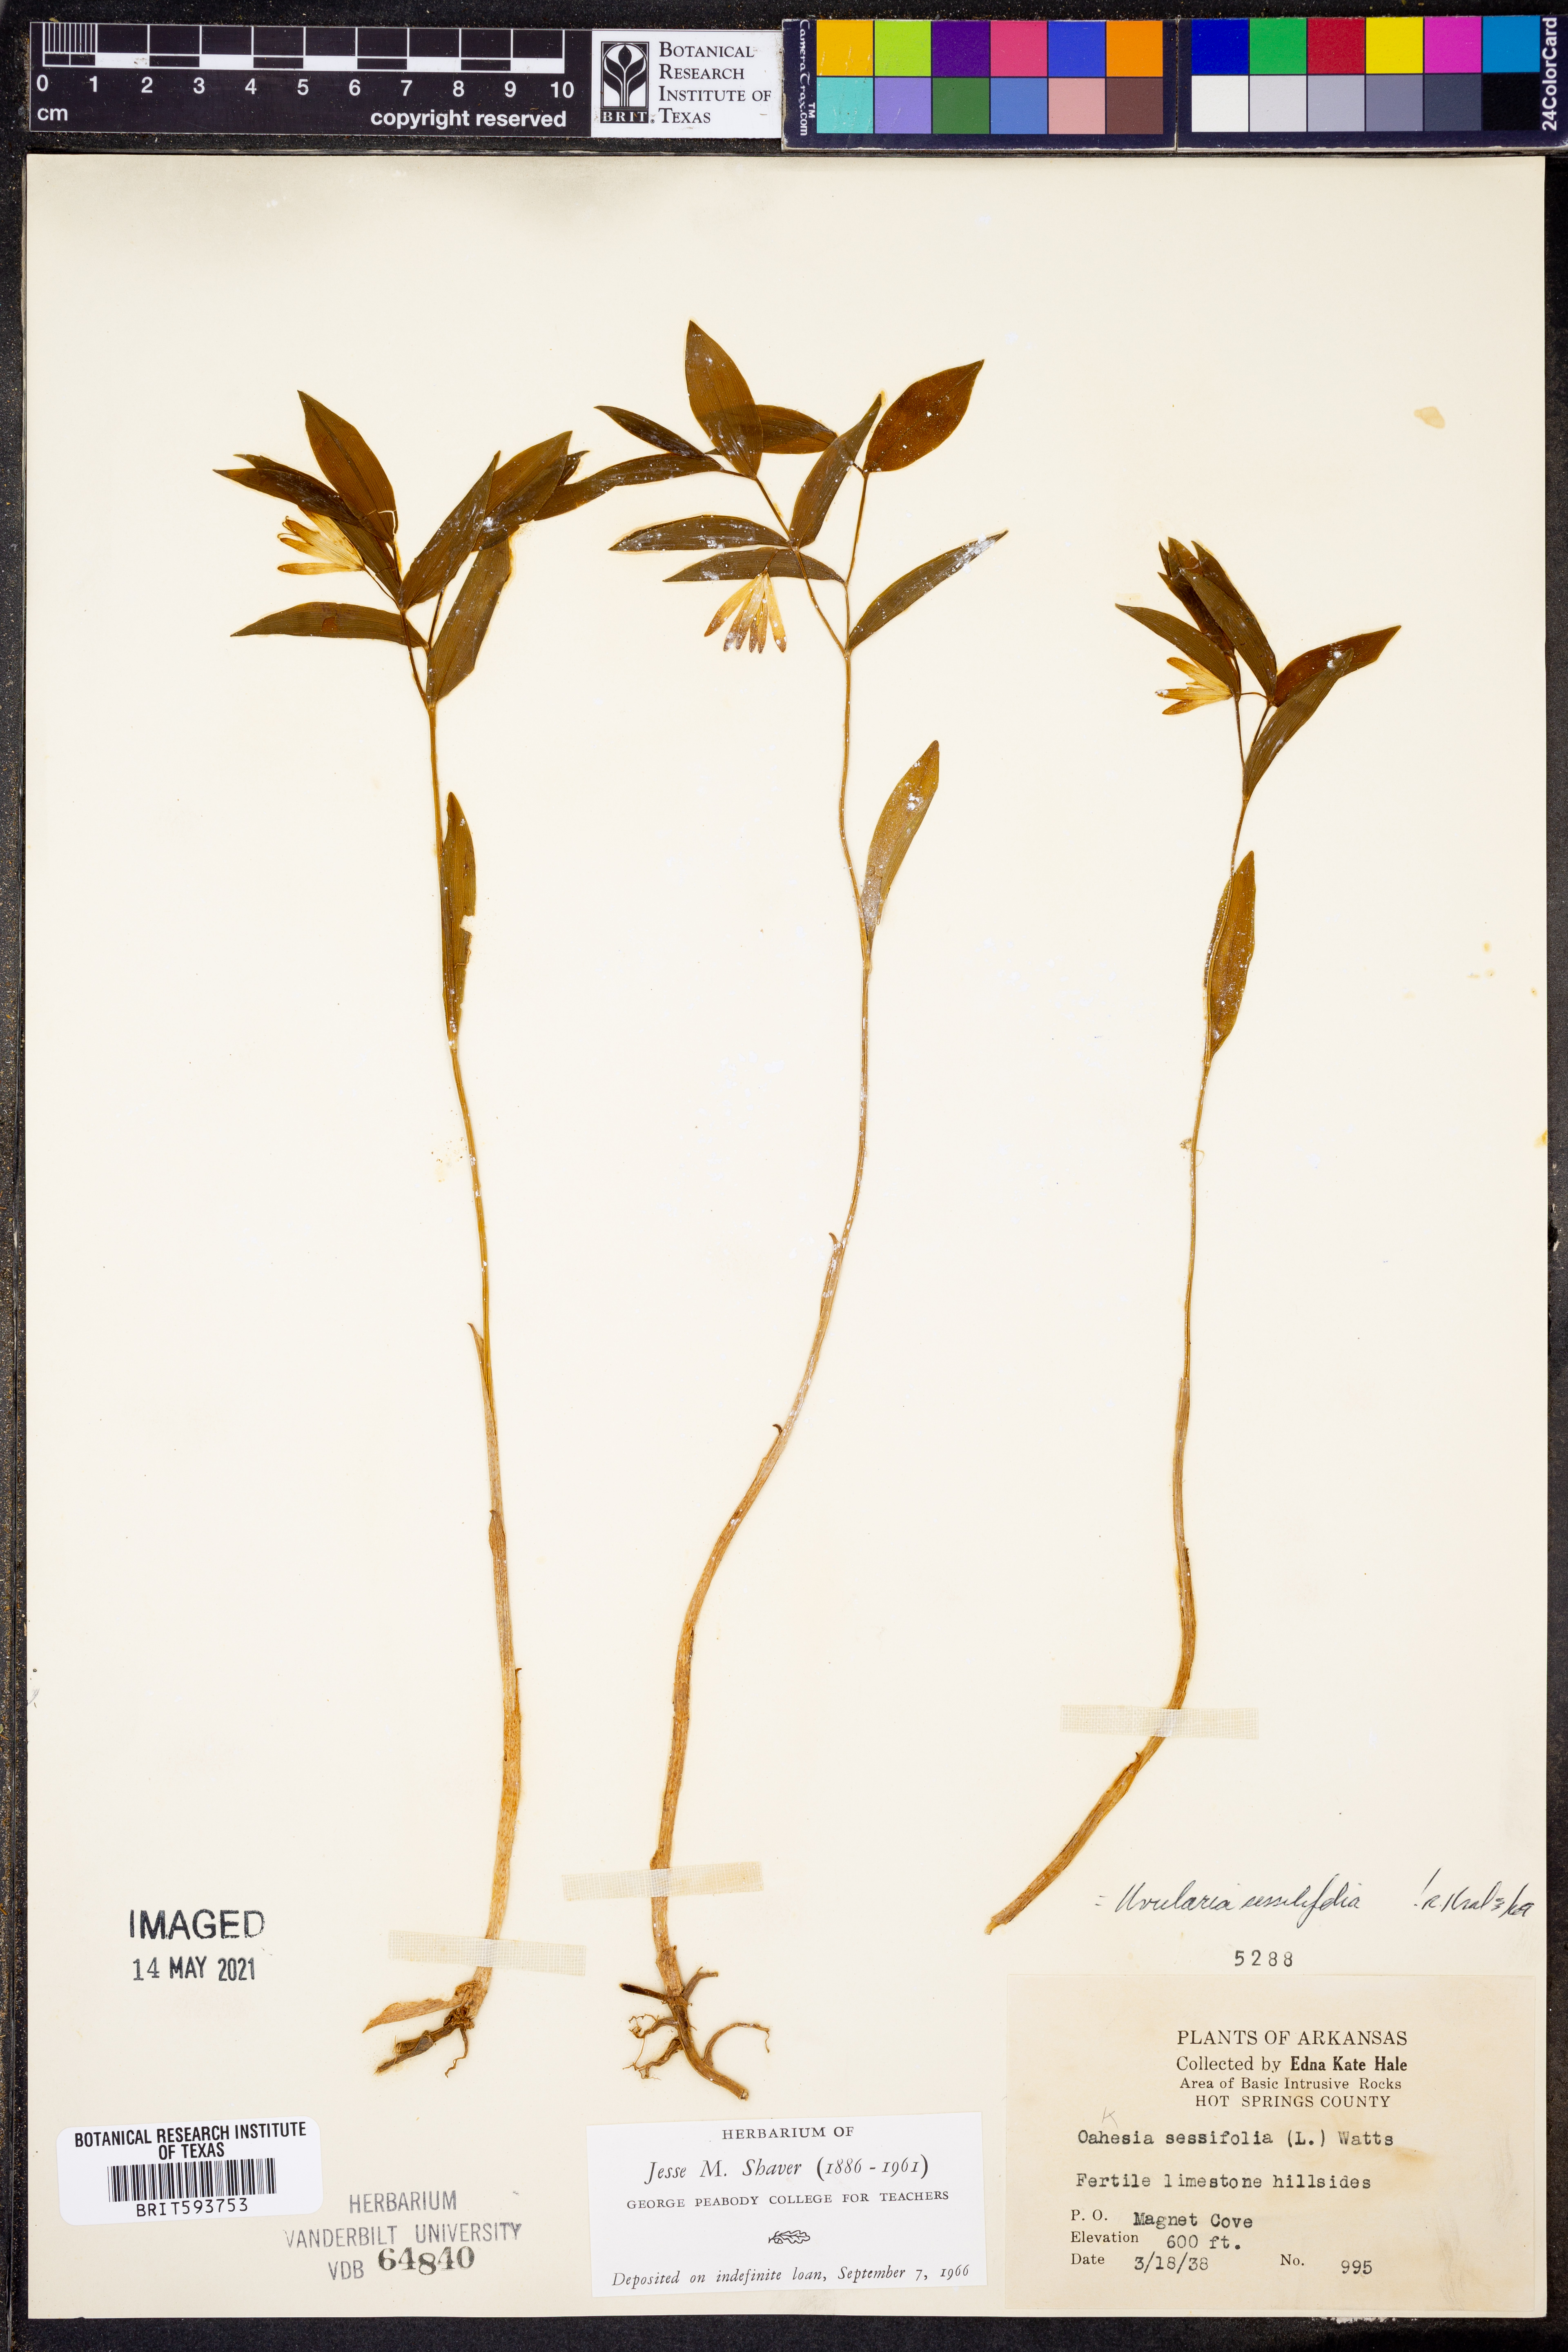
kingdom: Plantae
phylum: Tracheophyta
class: Liliopsida
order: Liliales
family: Colchicaceae
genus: Uvularia
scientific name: Uvularia sessilifolia
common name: Straw-lily
